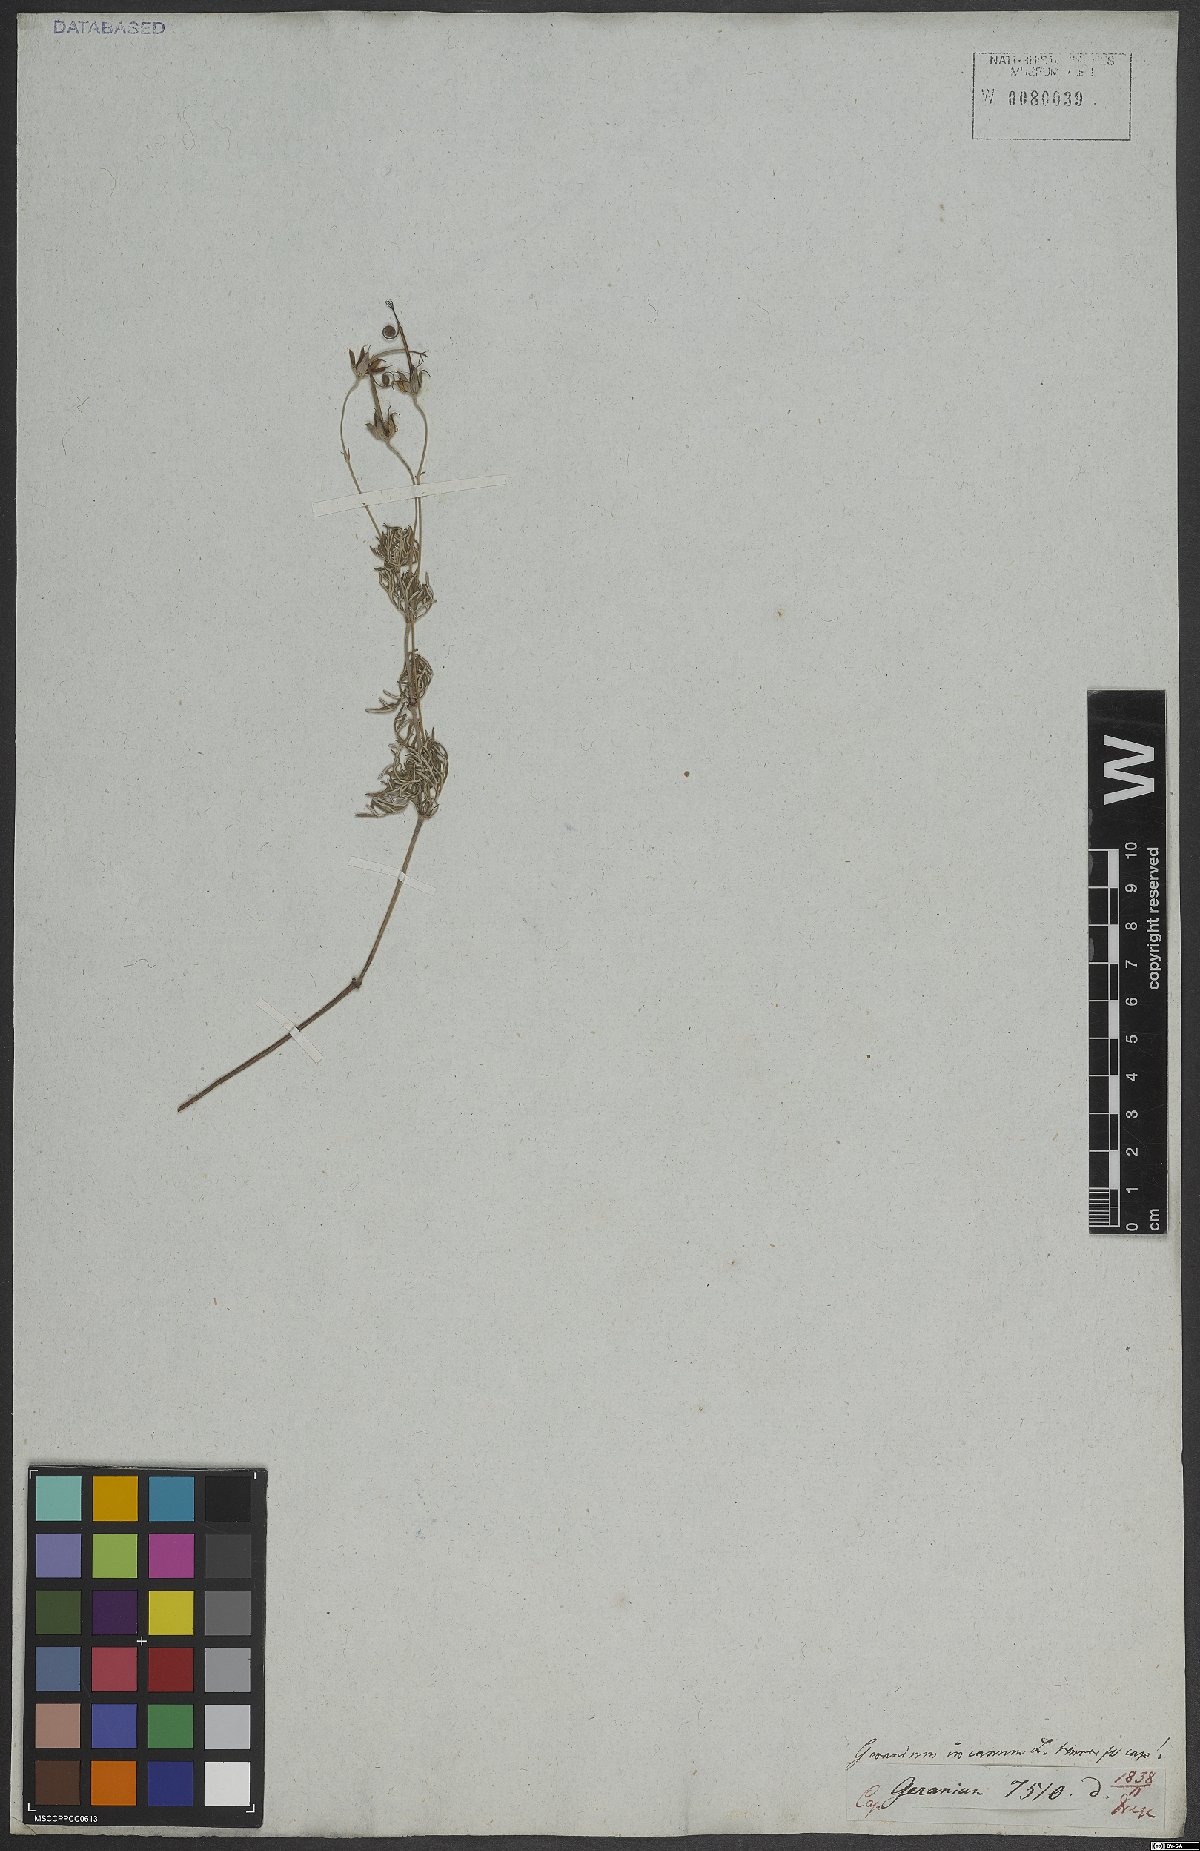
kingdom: Plantae
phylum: Tracheophyta
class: Magnoliopsida
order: Geraniales
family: Geraniaceae
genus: Geranium
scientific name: Geranium incanum
